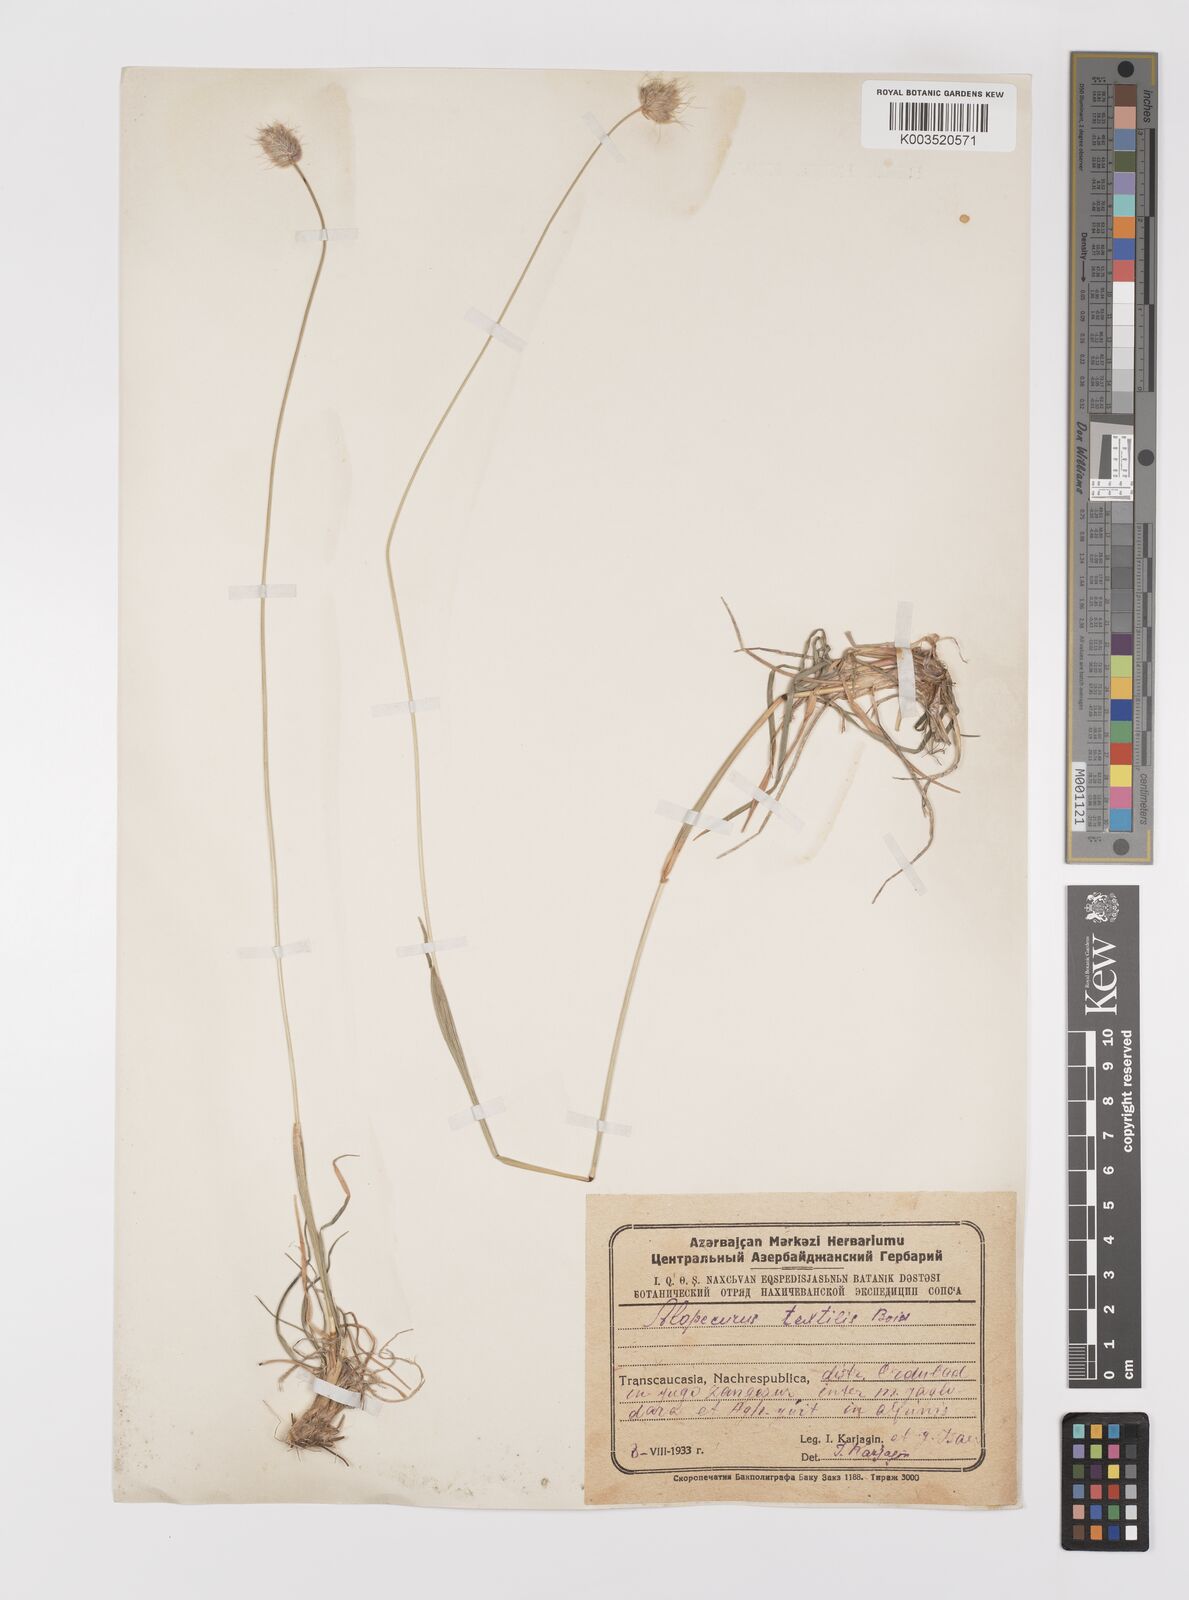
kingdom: Plantae
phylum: Tracheophyta
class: Liliopsida
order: Poales
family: Poaceae
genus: Alopecurus
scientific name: Alopecurus textilis
